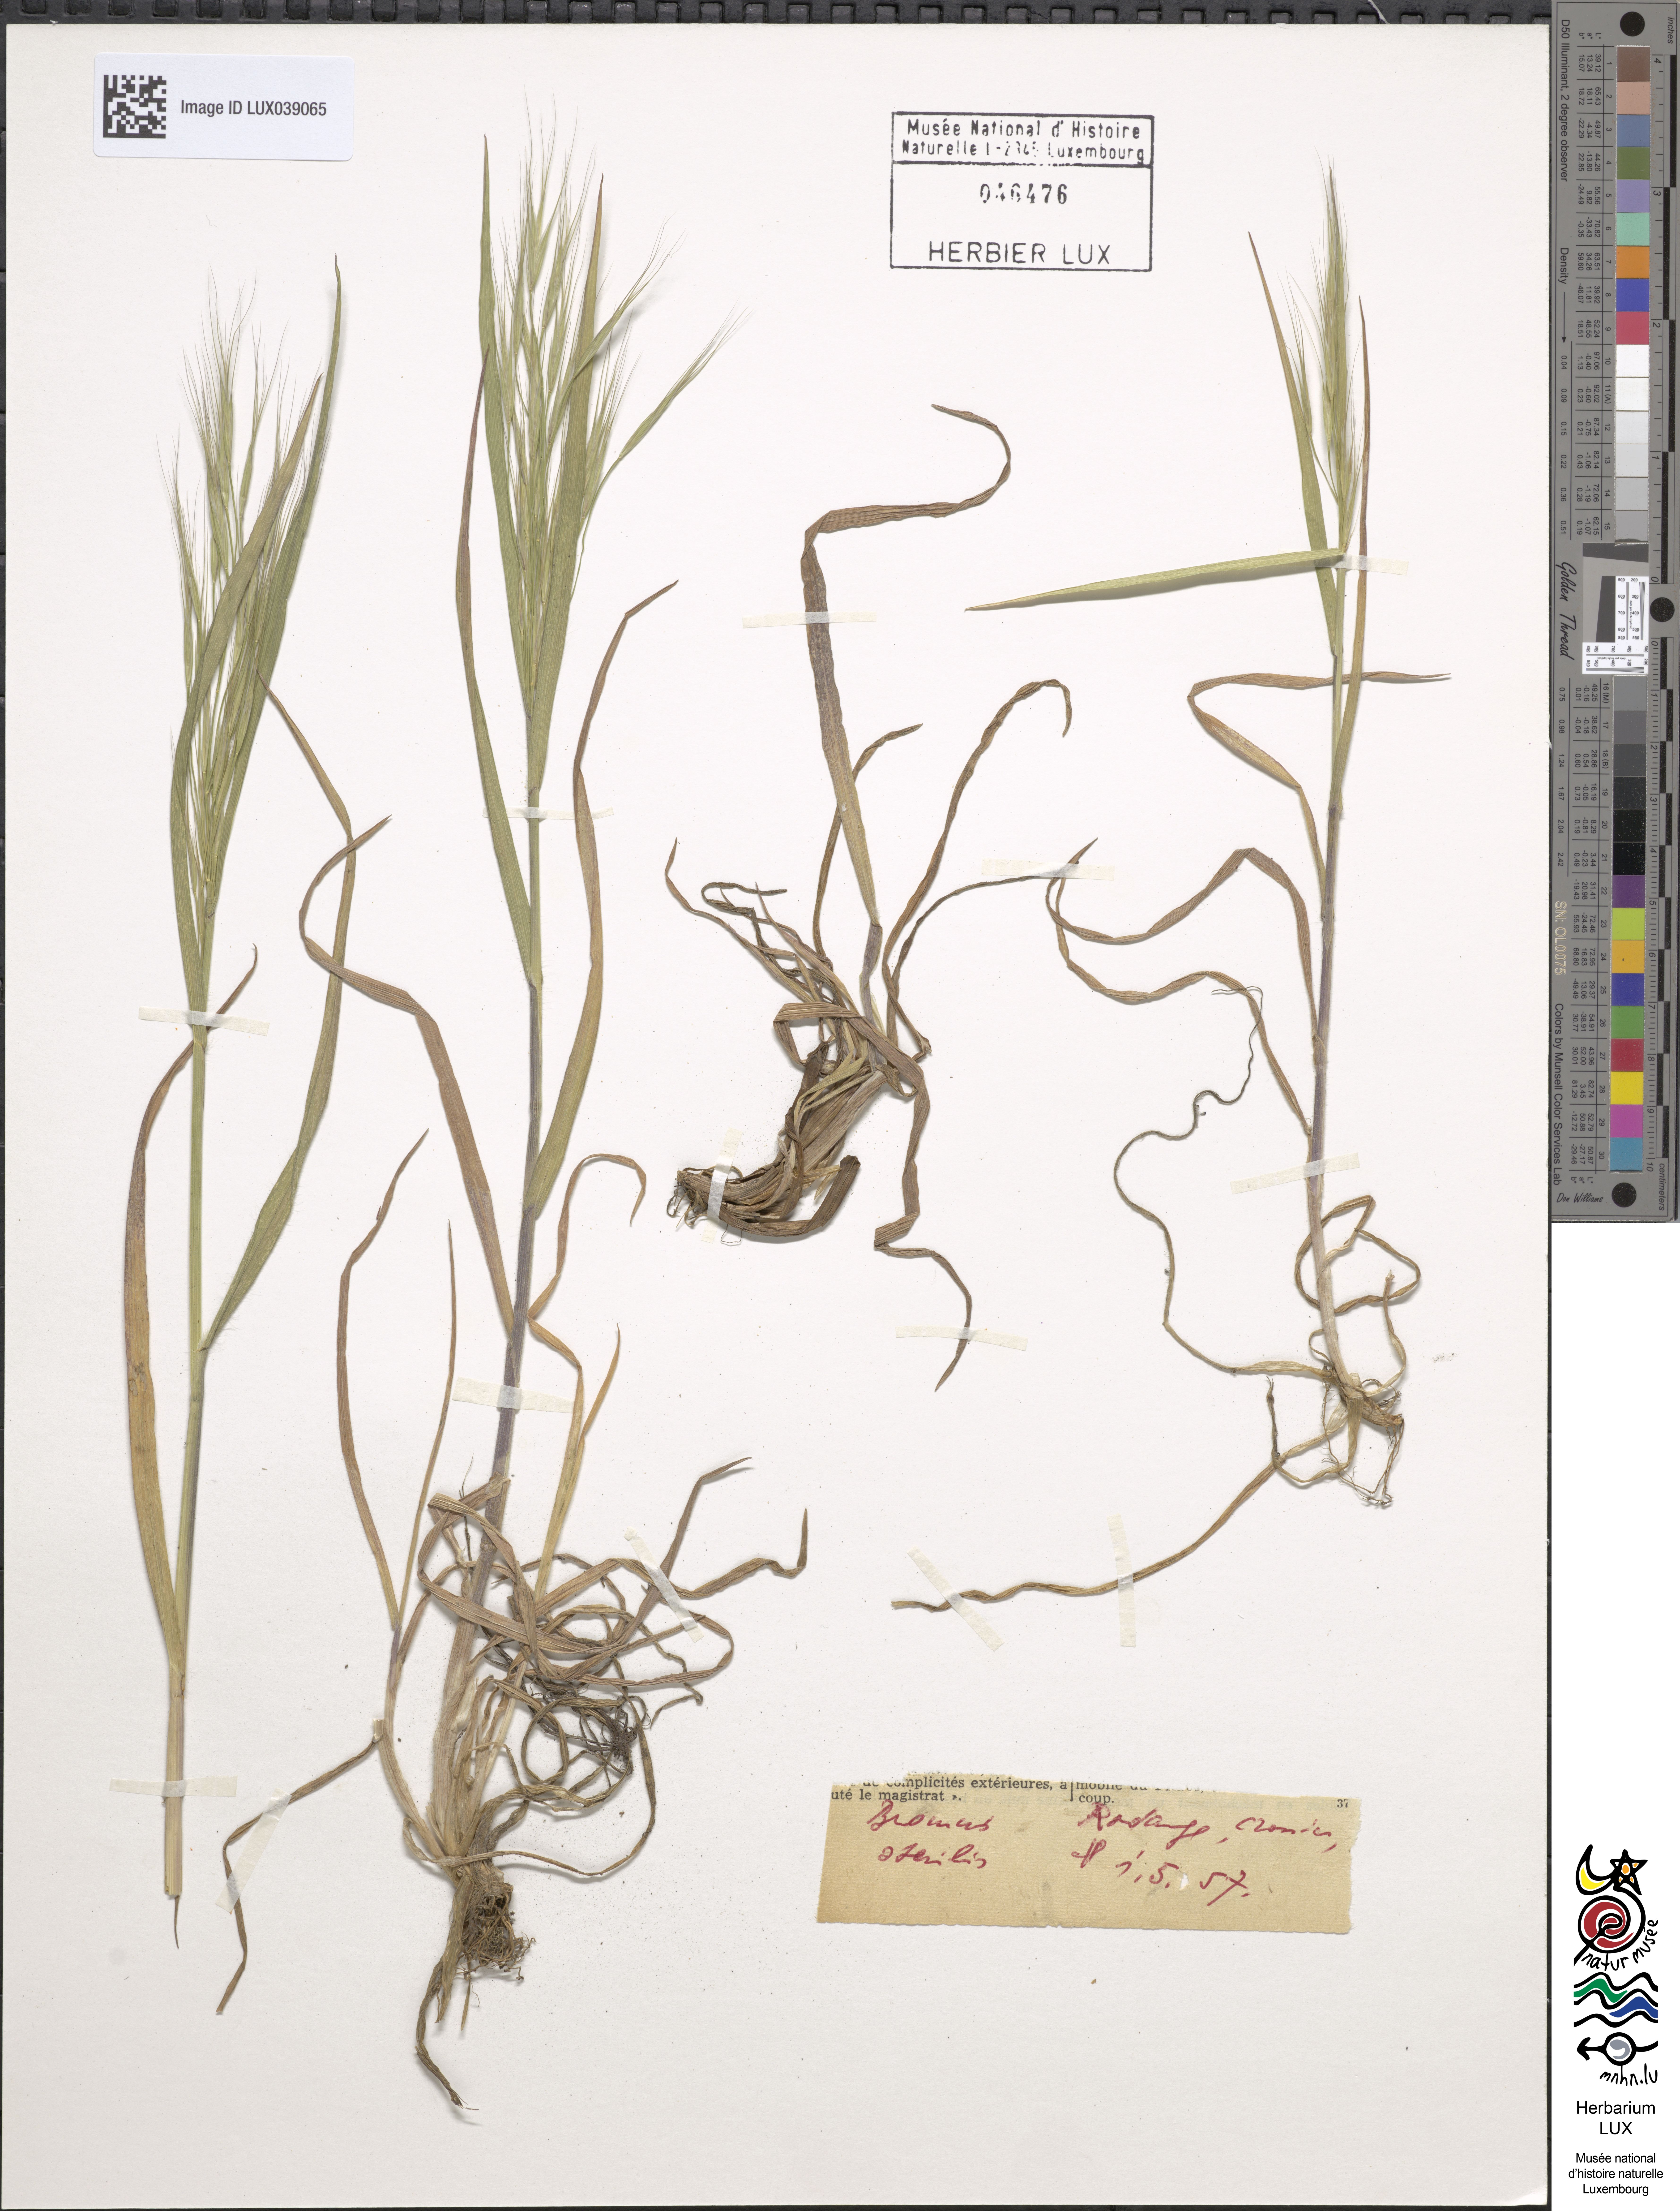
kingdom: Plantae
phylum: Tracheophyta
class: Liliopsida
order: Poales
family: Poaceae
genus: Bromus
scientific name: Bromus sterilis
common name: Poverty brome
